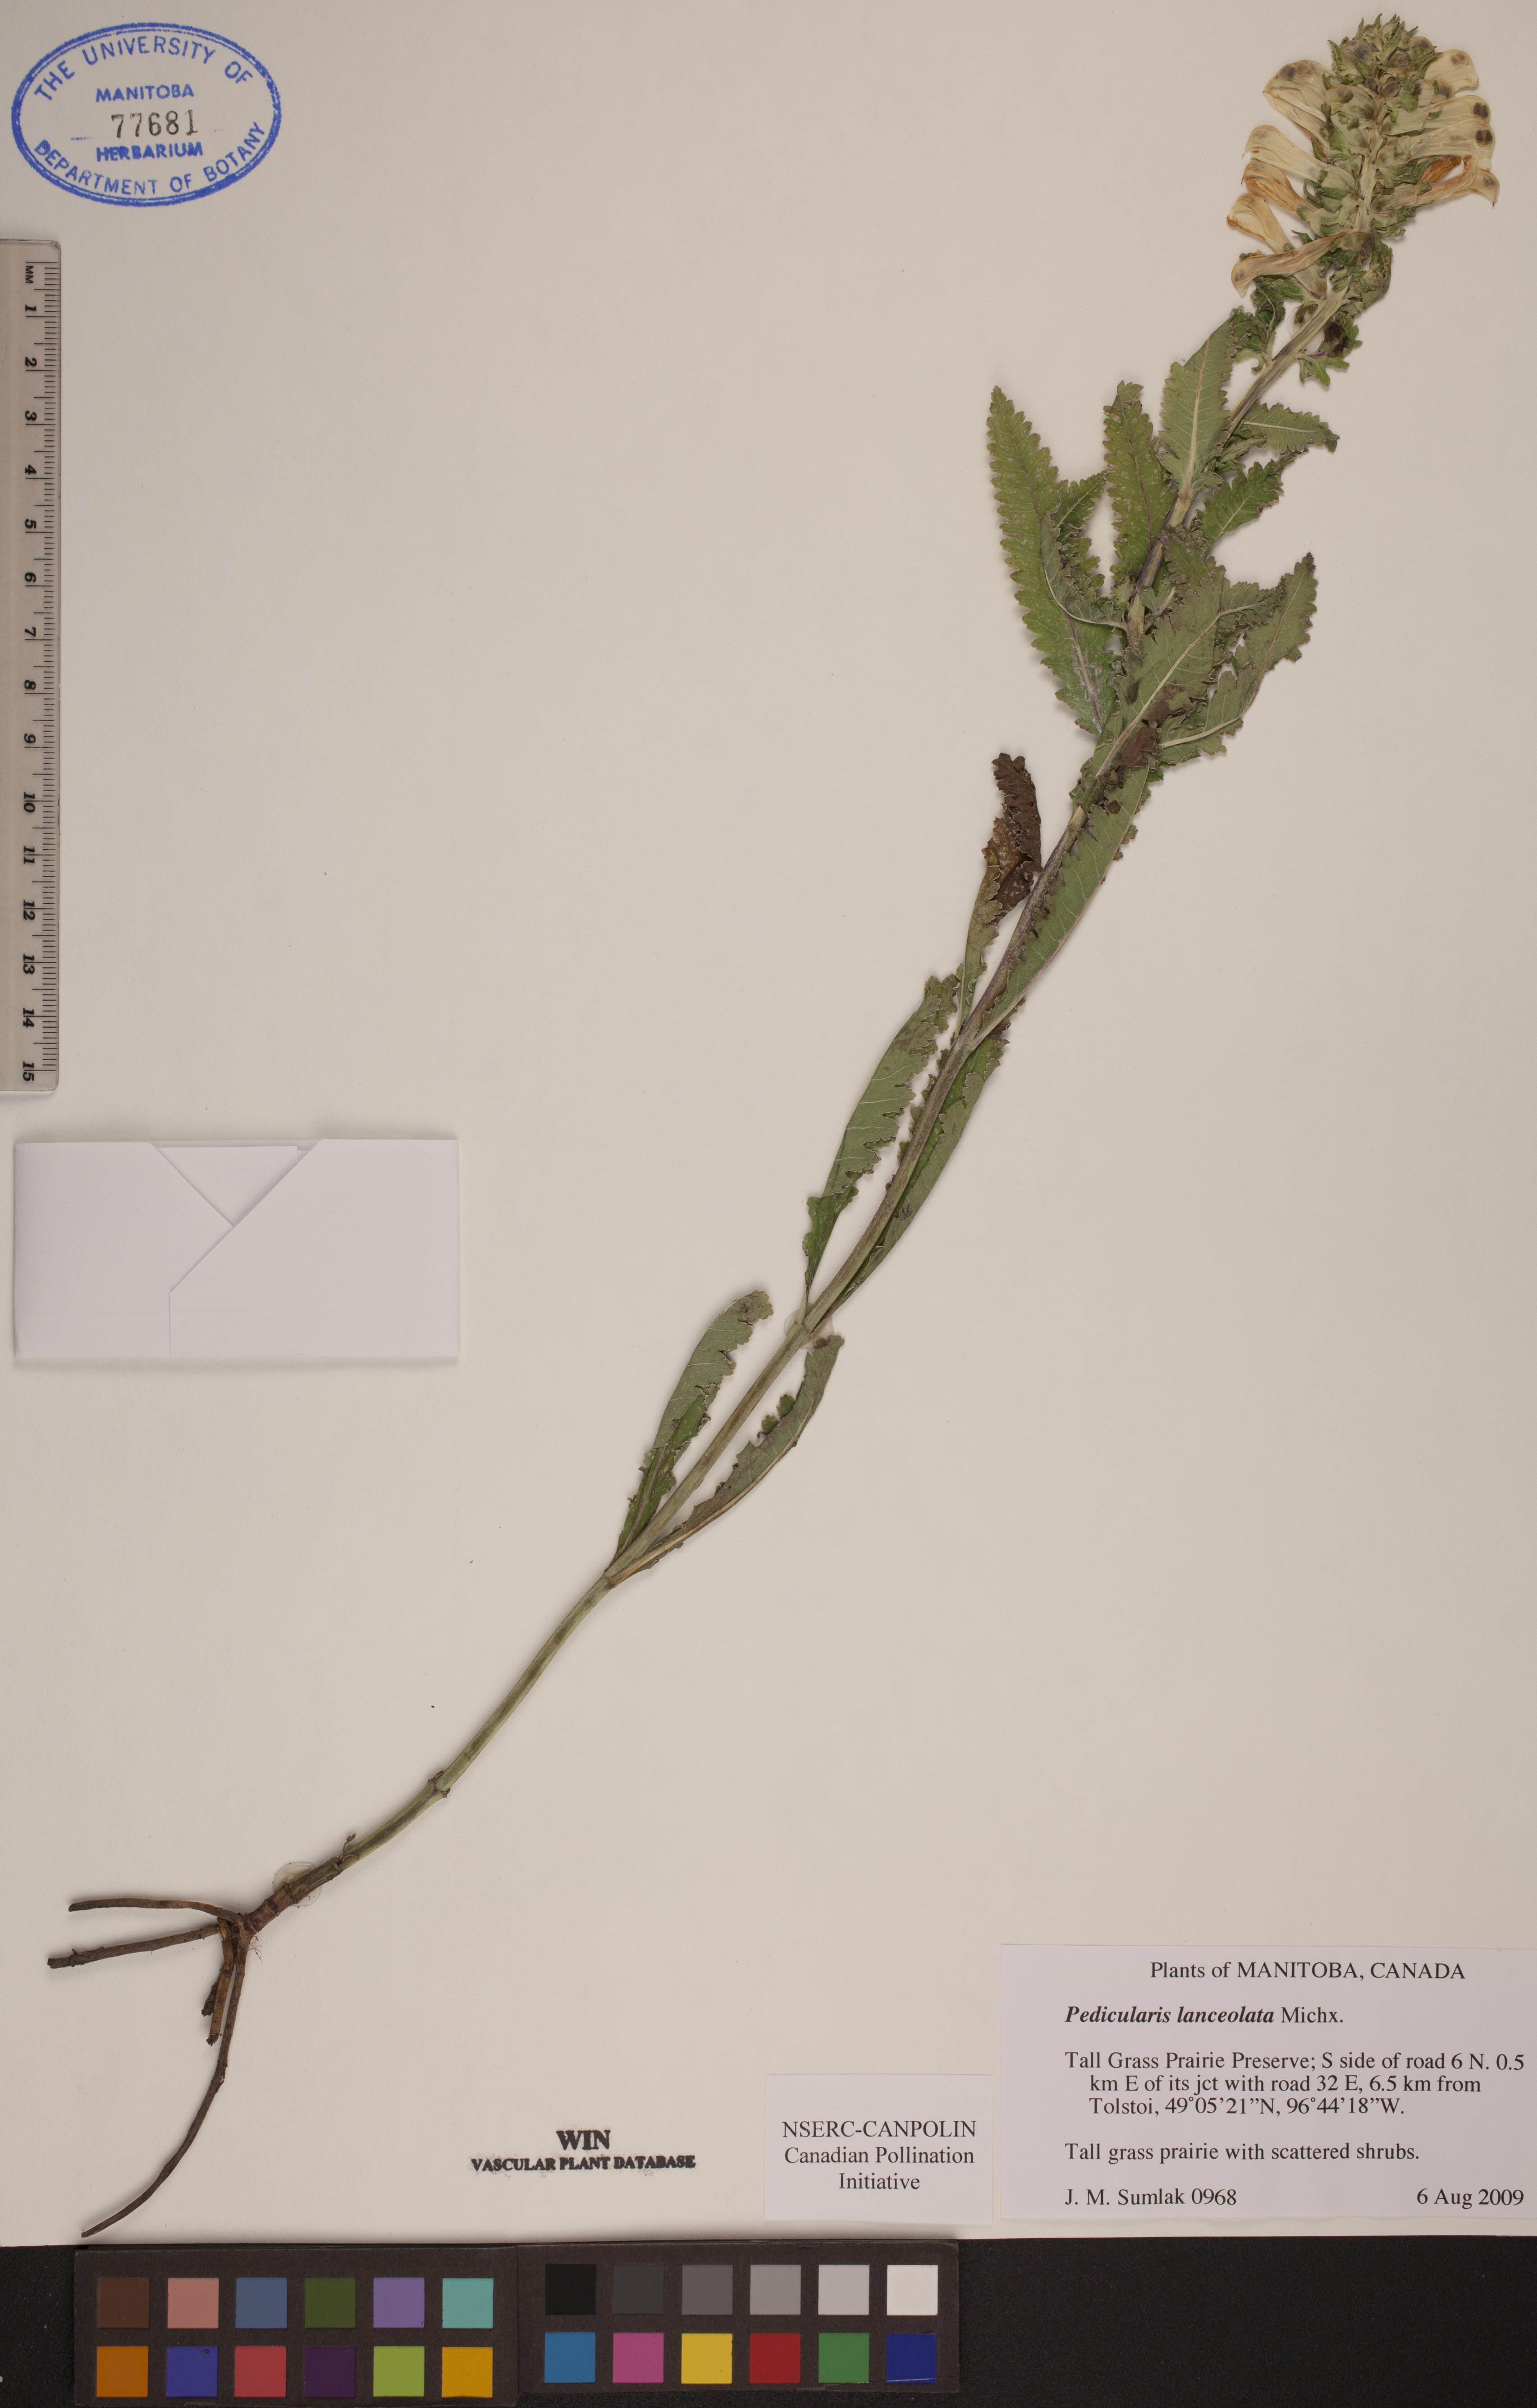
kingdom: Plantae
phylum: Tracheophyta
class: Magnoliopsida
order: Lamiales
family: Orobanchaceae
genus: Pedicularis
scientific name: Pedicularis lanceolata
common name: Swamp lousewort
